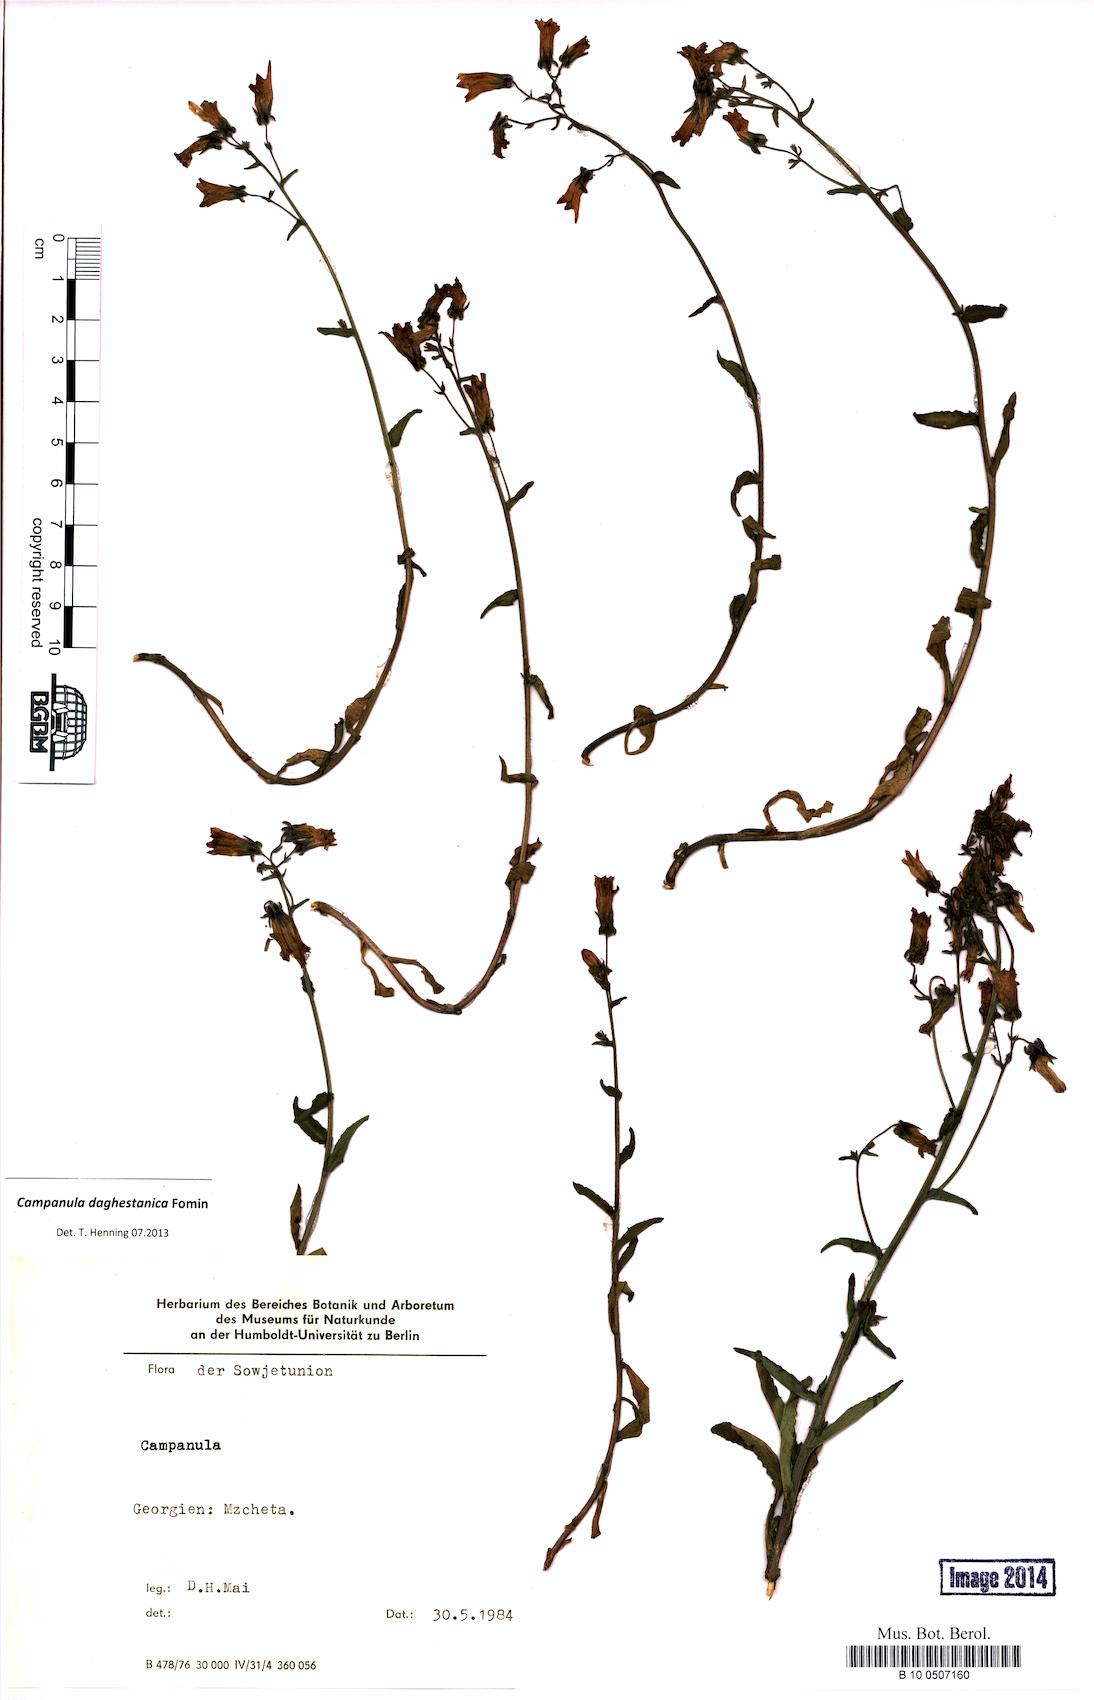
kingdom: Plantae
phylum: Tracheophyta
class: Magnoliopsida
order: Asterales
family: Campanulaceae
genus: Campanula
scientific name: Campanula daghestanica
